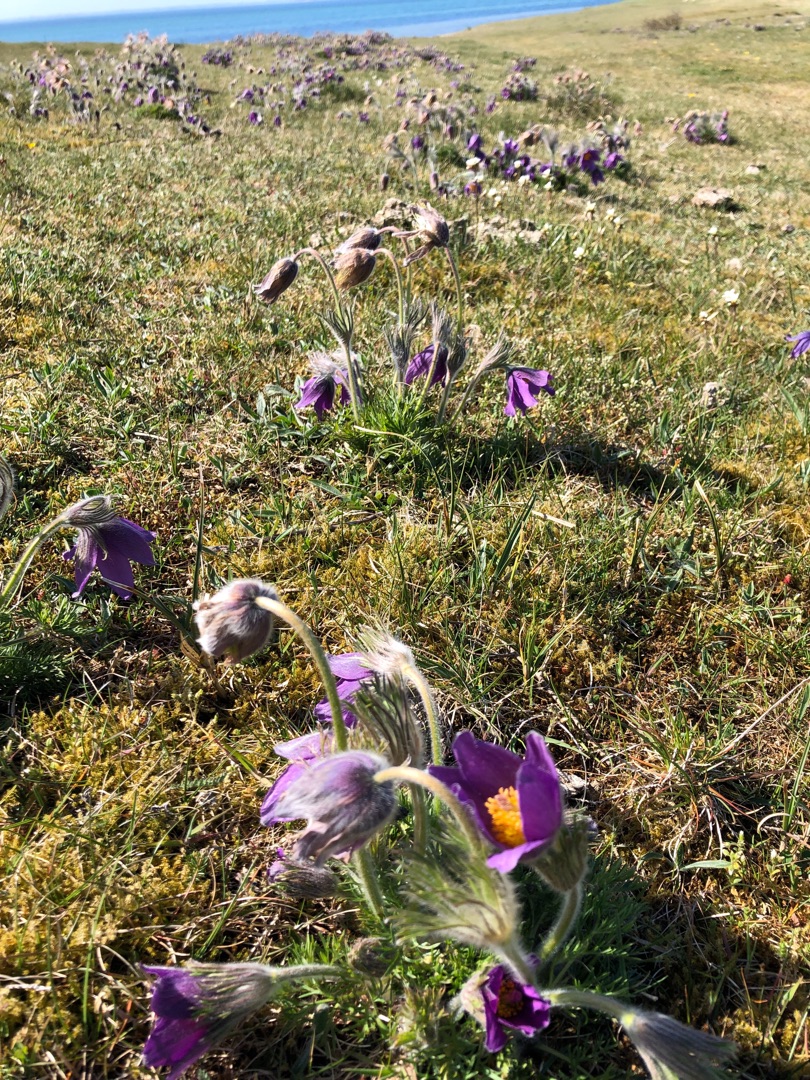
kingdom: Plantae
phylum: Tracheophyta
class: Magnoliopsida
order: Ranunculales
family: Ranunculaceae
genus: Pulsatilla
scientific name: Pulsatilla vulgaris
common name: Opret kobjælde
